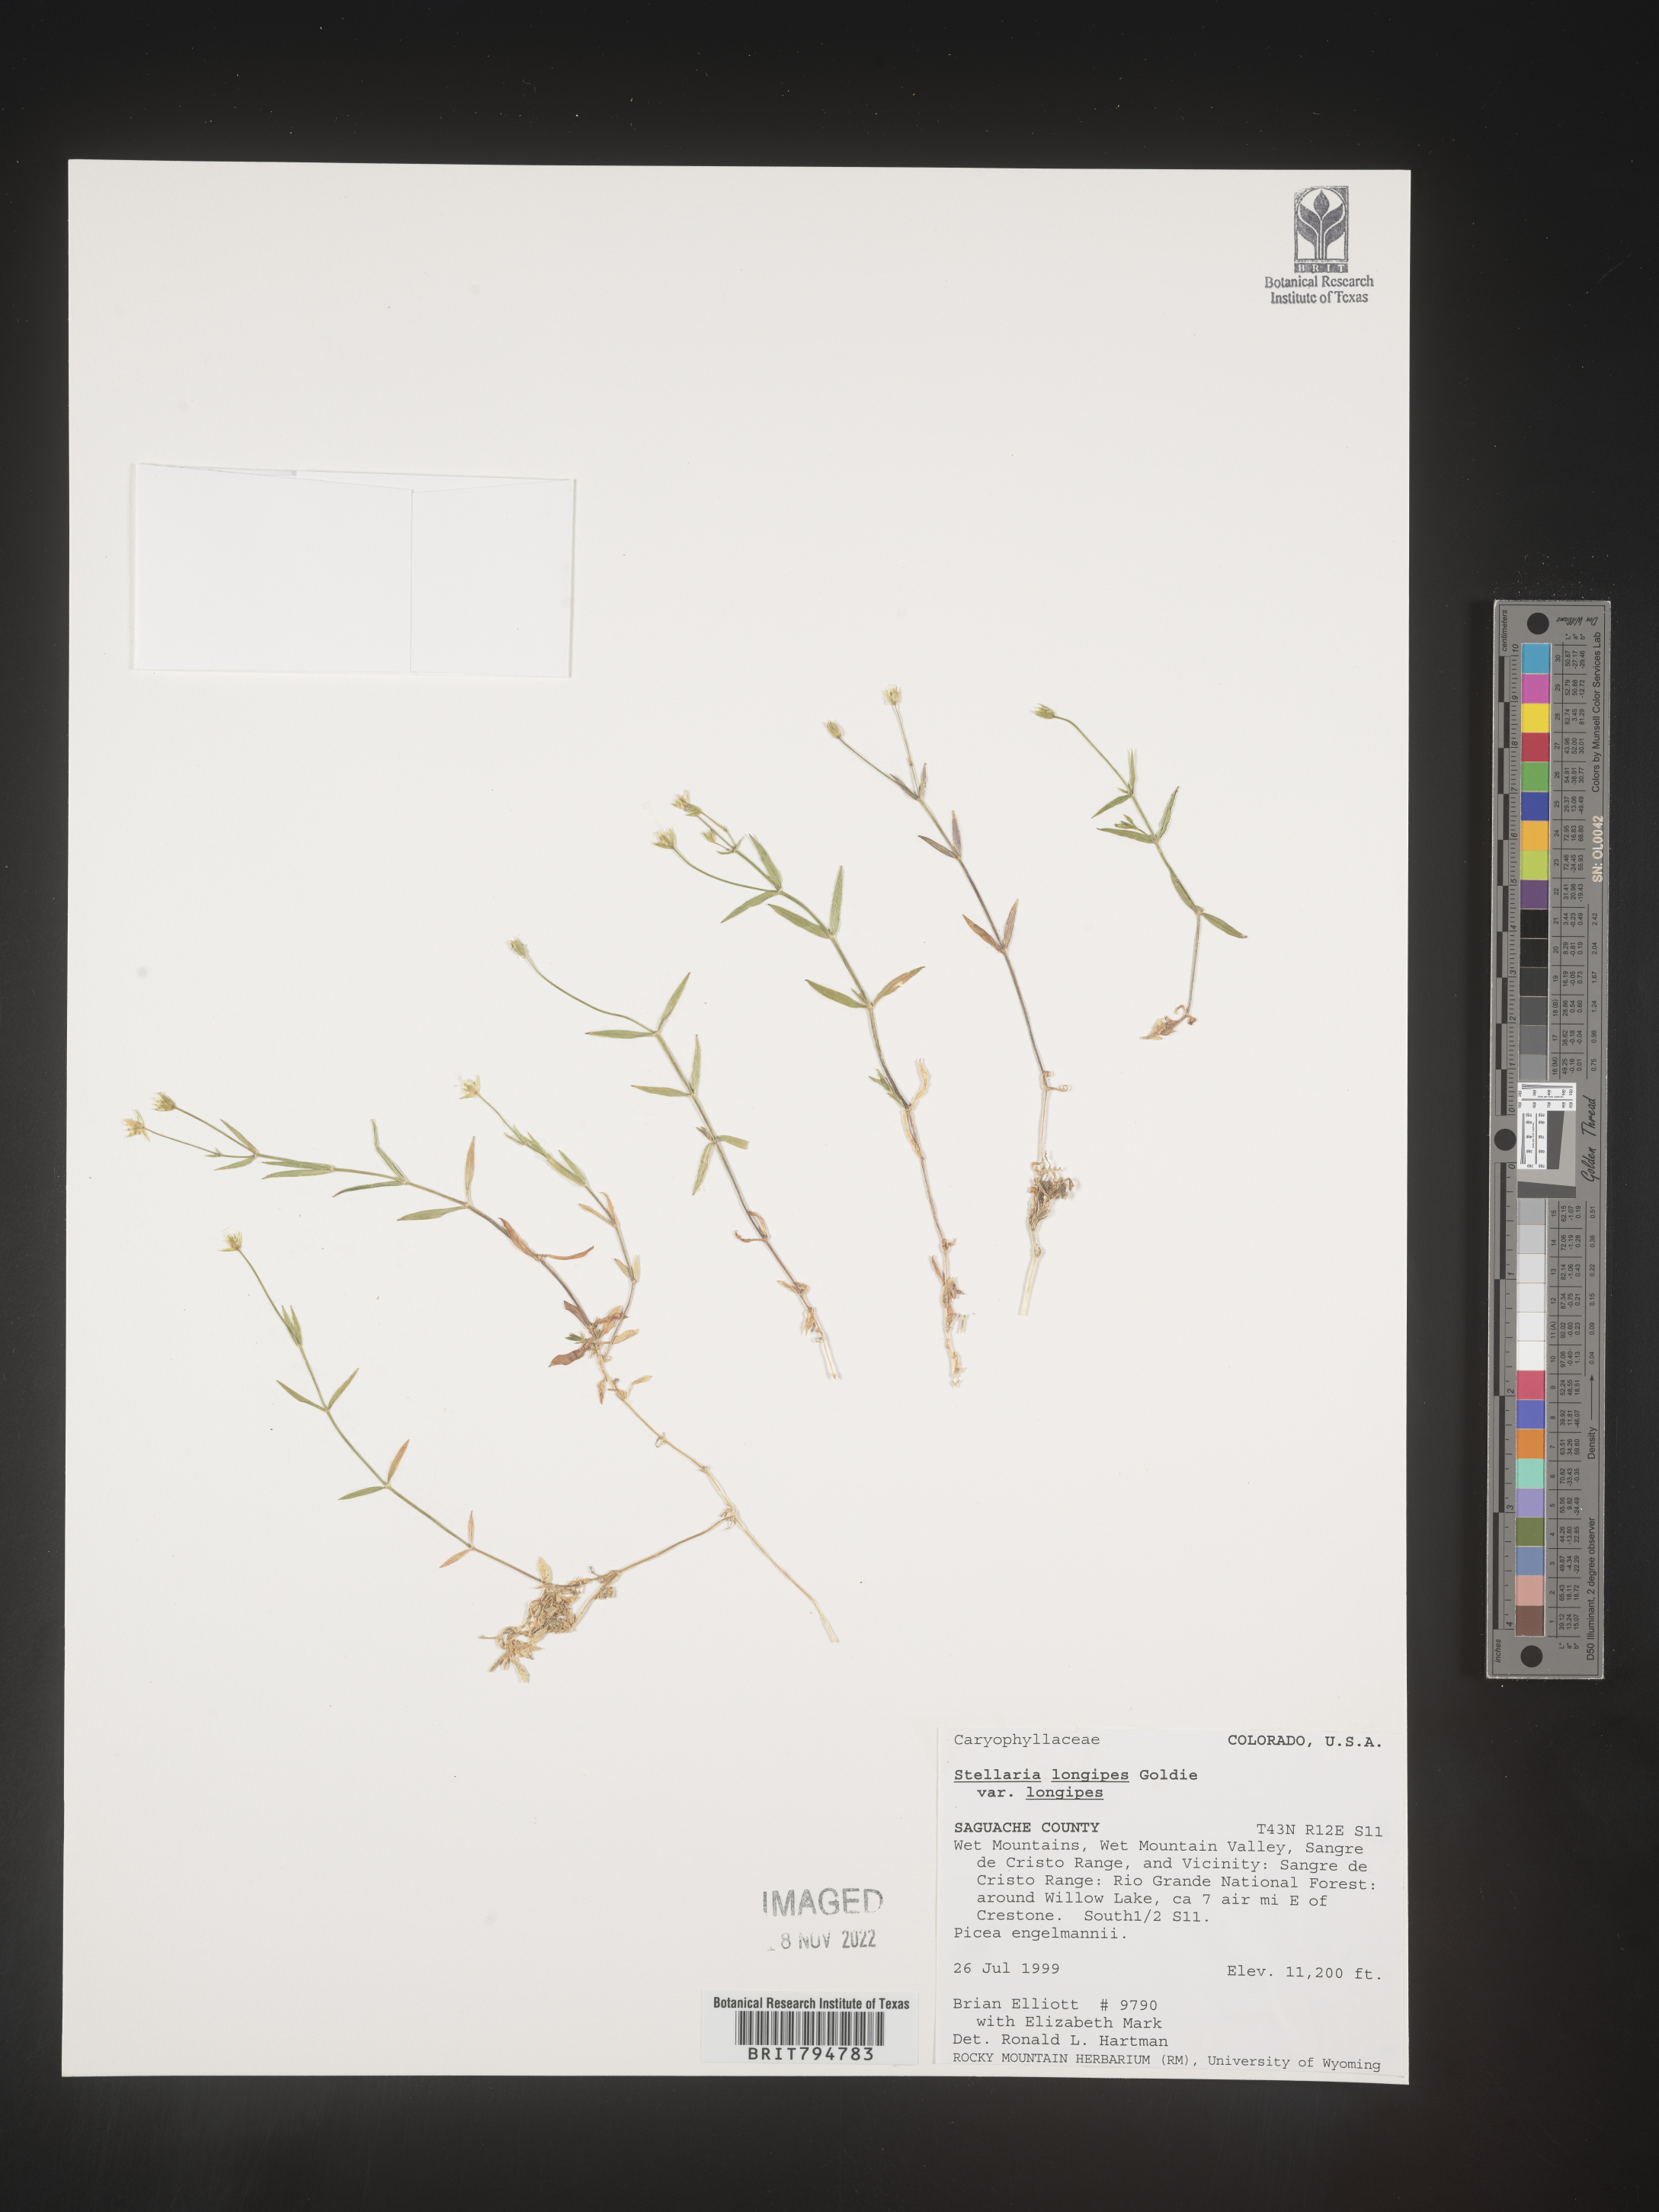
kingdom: Plantae
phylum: Tracheophyta
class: Magnoliopsida
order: Caryophyllales
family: Caryophyllaceae
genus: Stellaria
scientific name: Stellaria longipes
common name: Goldie's starwort
